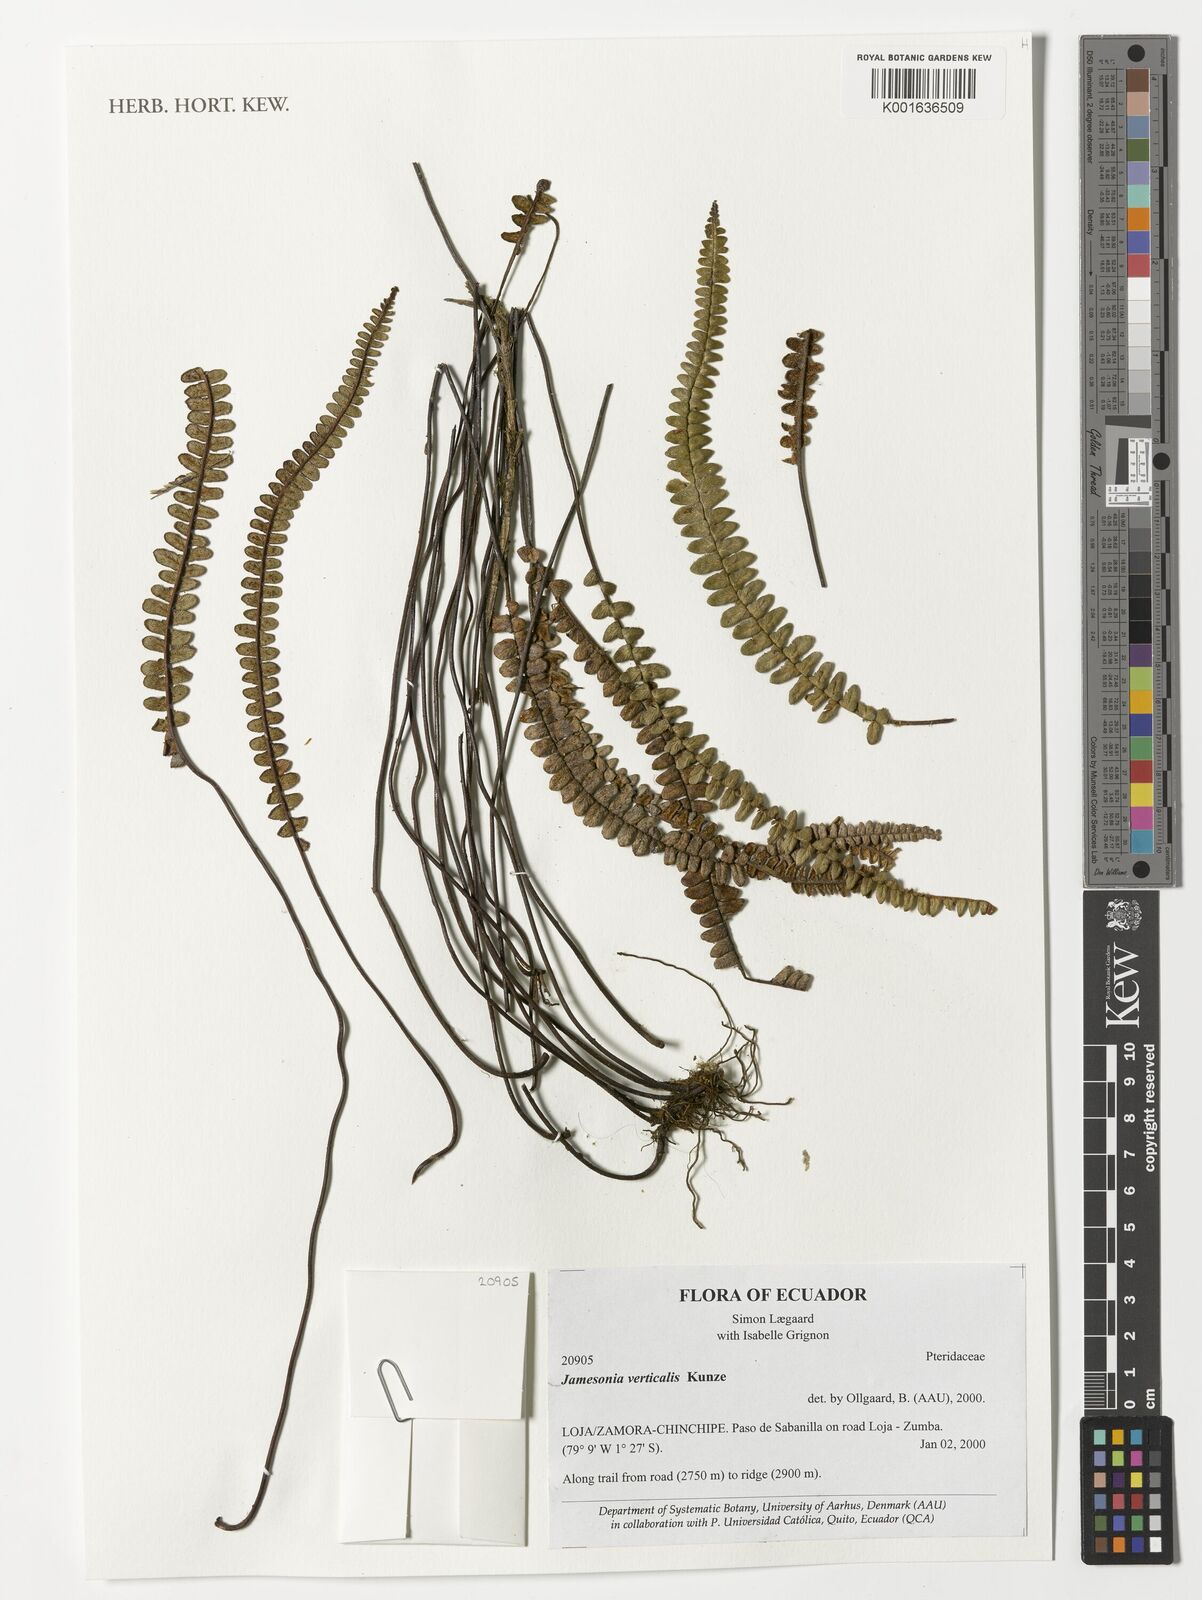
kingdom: Plantae
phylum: Tracheophyta
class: Polypodiopsida
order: Polypodiales
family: Pteridaceae
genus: Jamesonia
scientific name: Jamesonia verticalis
